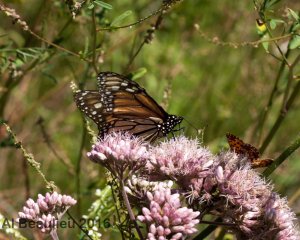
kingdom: Animalia
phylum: Arthropoda
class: Insecta
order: Lepidoptera
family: Nymphalidae
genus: Danaus
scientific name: Danaus plexippus
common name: Monarch
